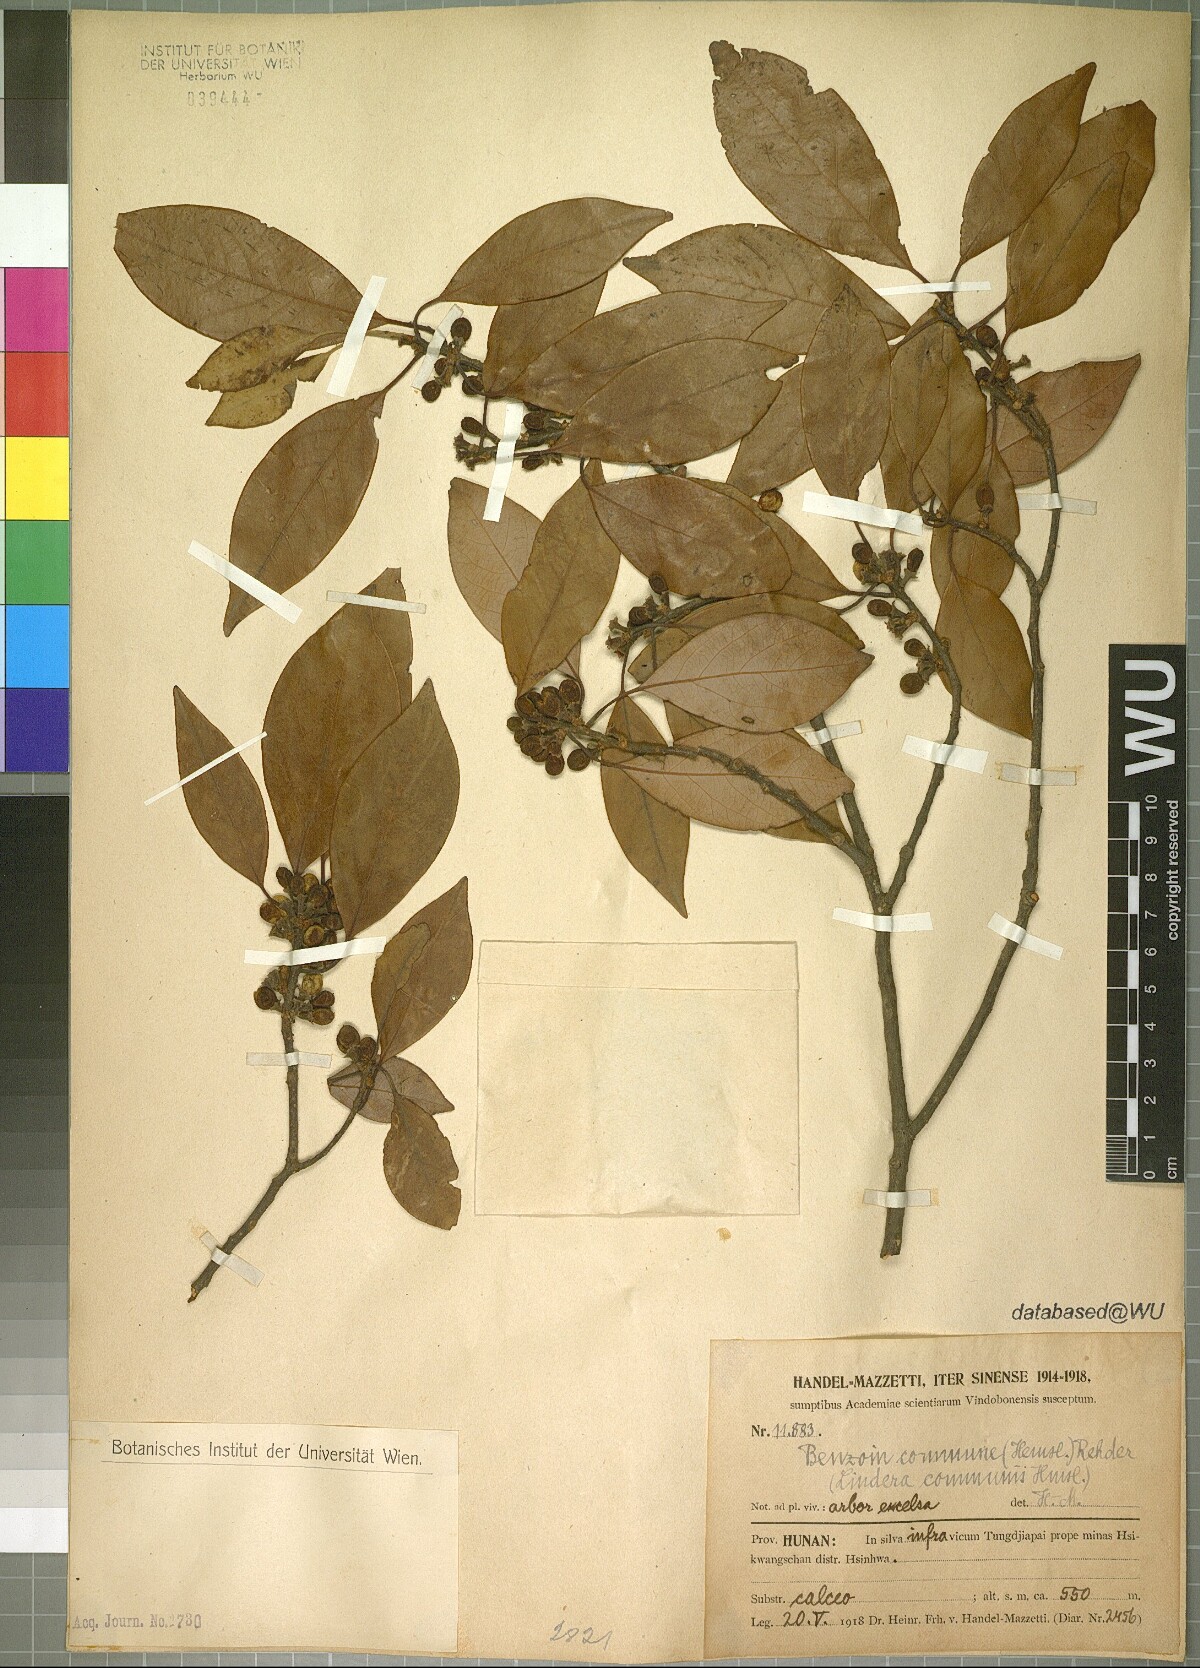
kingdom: Plantae
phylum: Tracheophyta
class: Magnoliopsida
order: Laurales
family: Lauraceae
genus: Lindera
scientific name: Lindera communis
